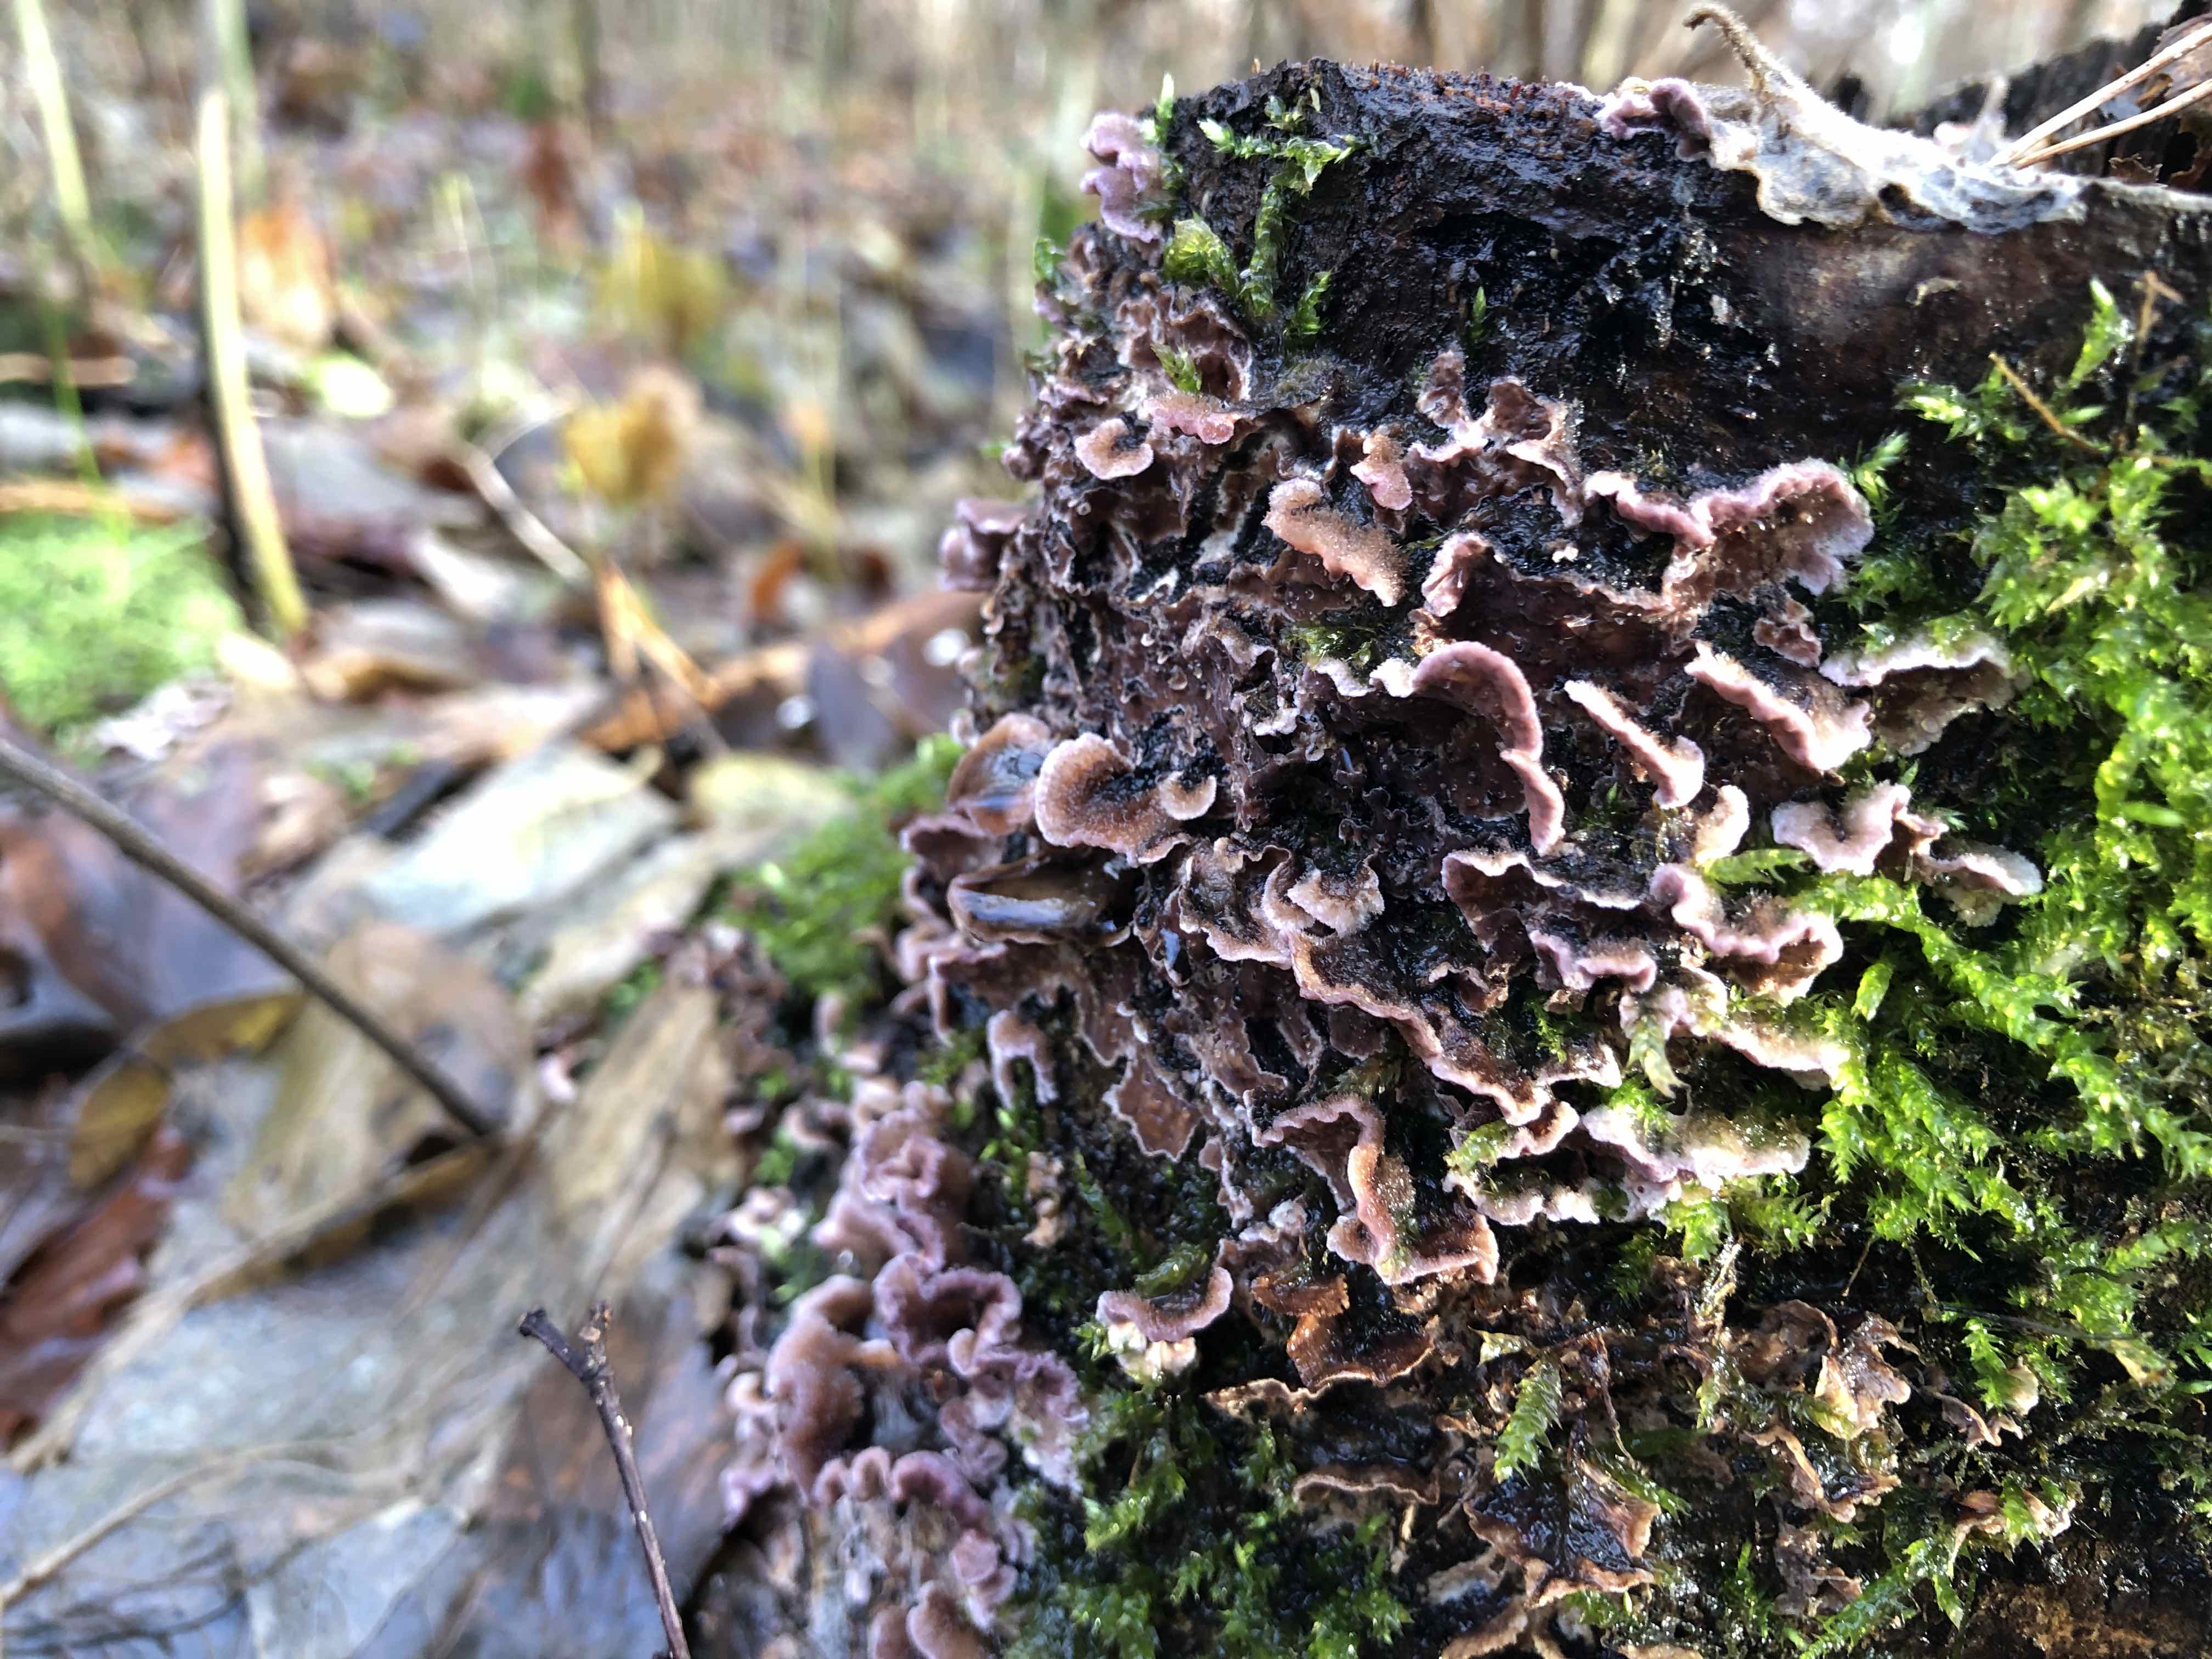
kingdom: Fungi
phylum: Basidiomycota
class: Agaricomycetes
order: Agaricales
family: Cyphellaceae
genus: Chondrostereum
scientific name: Chondrostereum purpureum
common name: purpurlædersvamp
